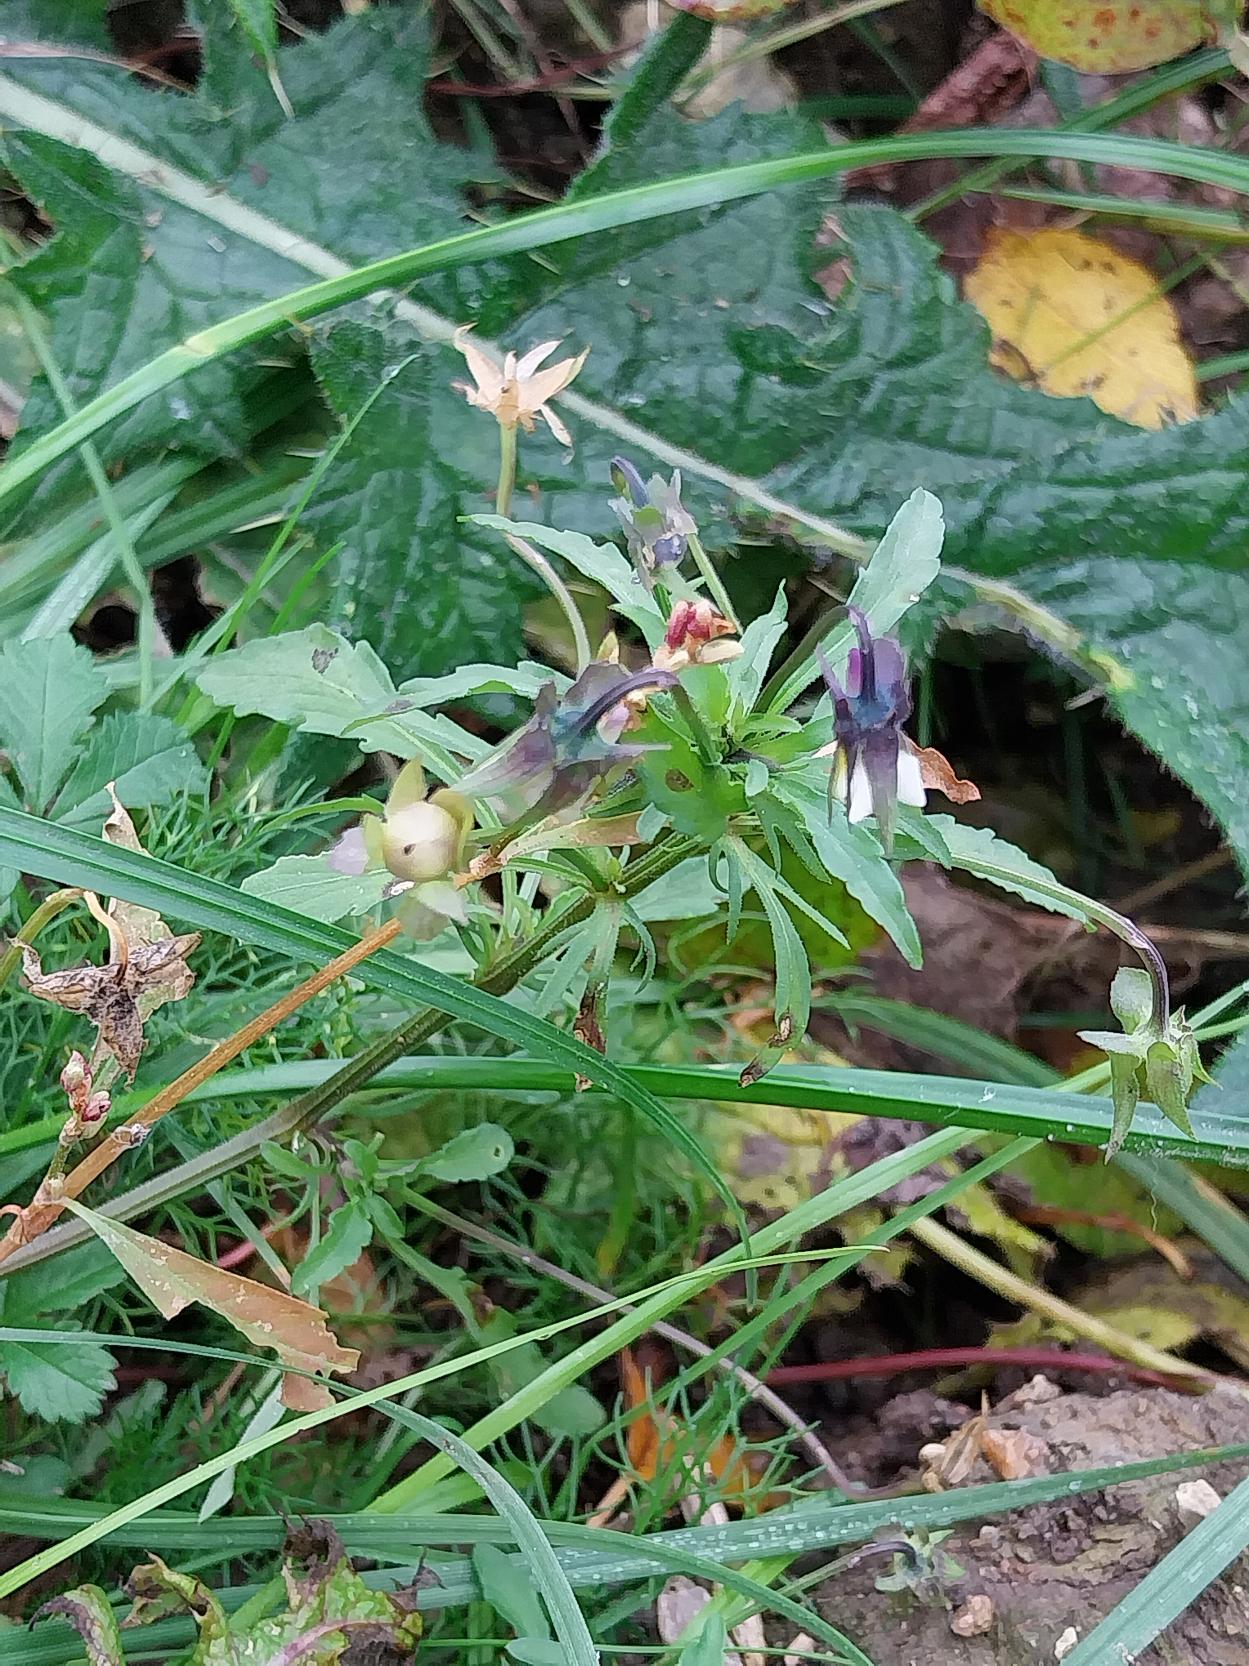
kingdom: Plantae
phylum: Tracheophyta
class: Magnoliopsida
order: Malpighiales
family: Violaceae
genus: Viola
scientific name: Viola arvensis
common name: Ager-stedmoderblomst
